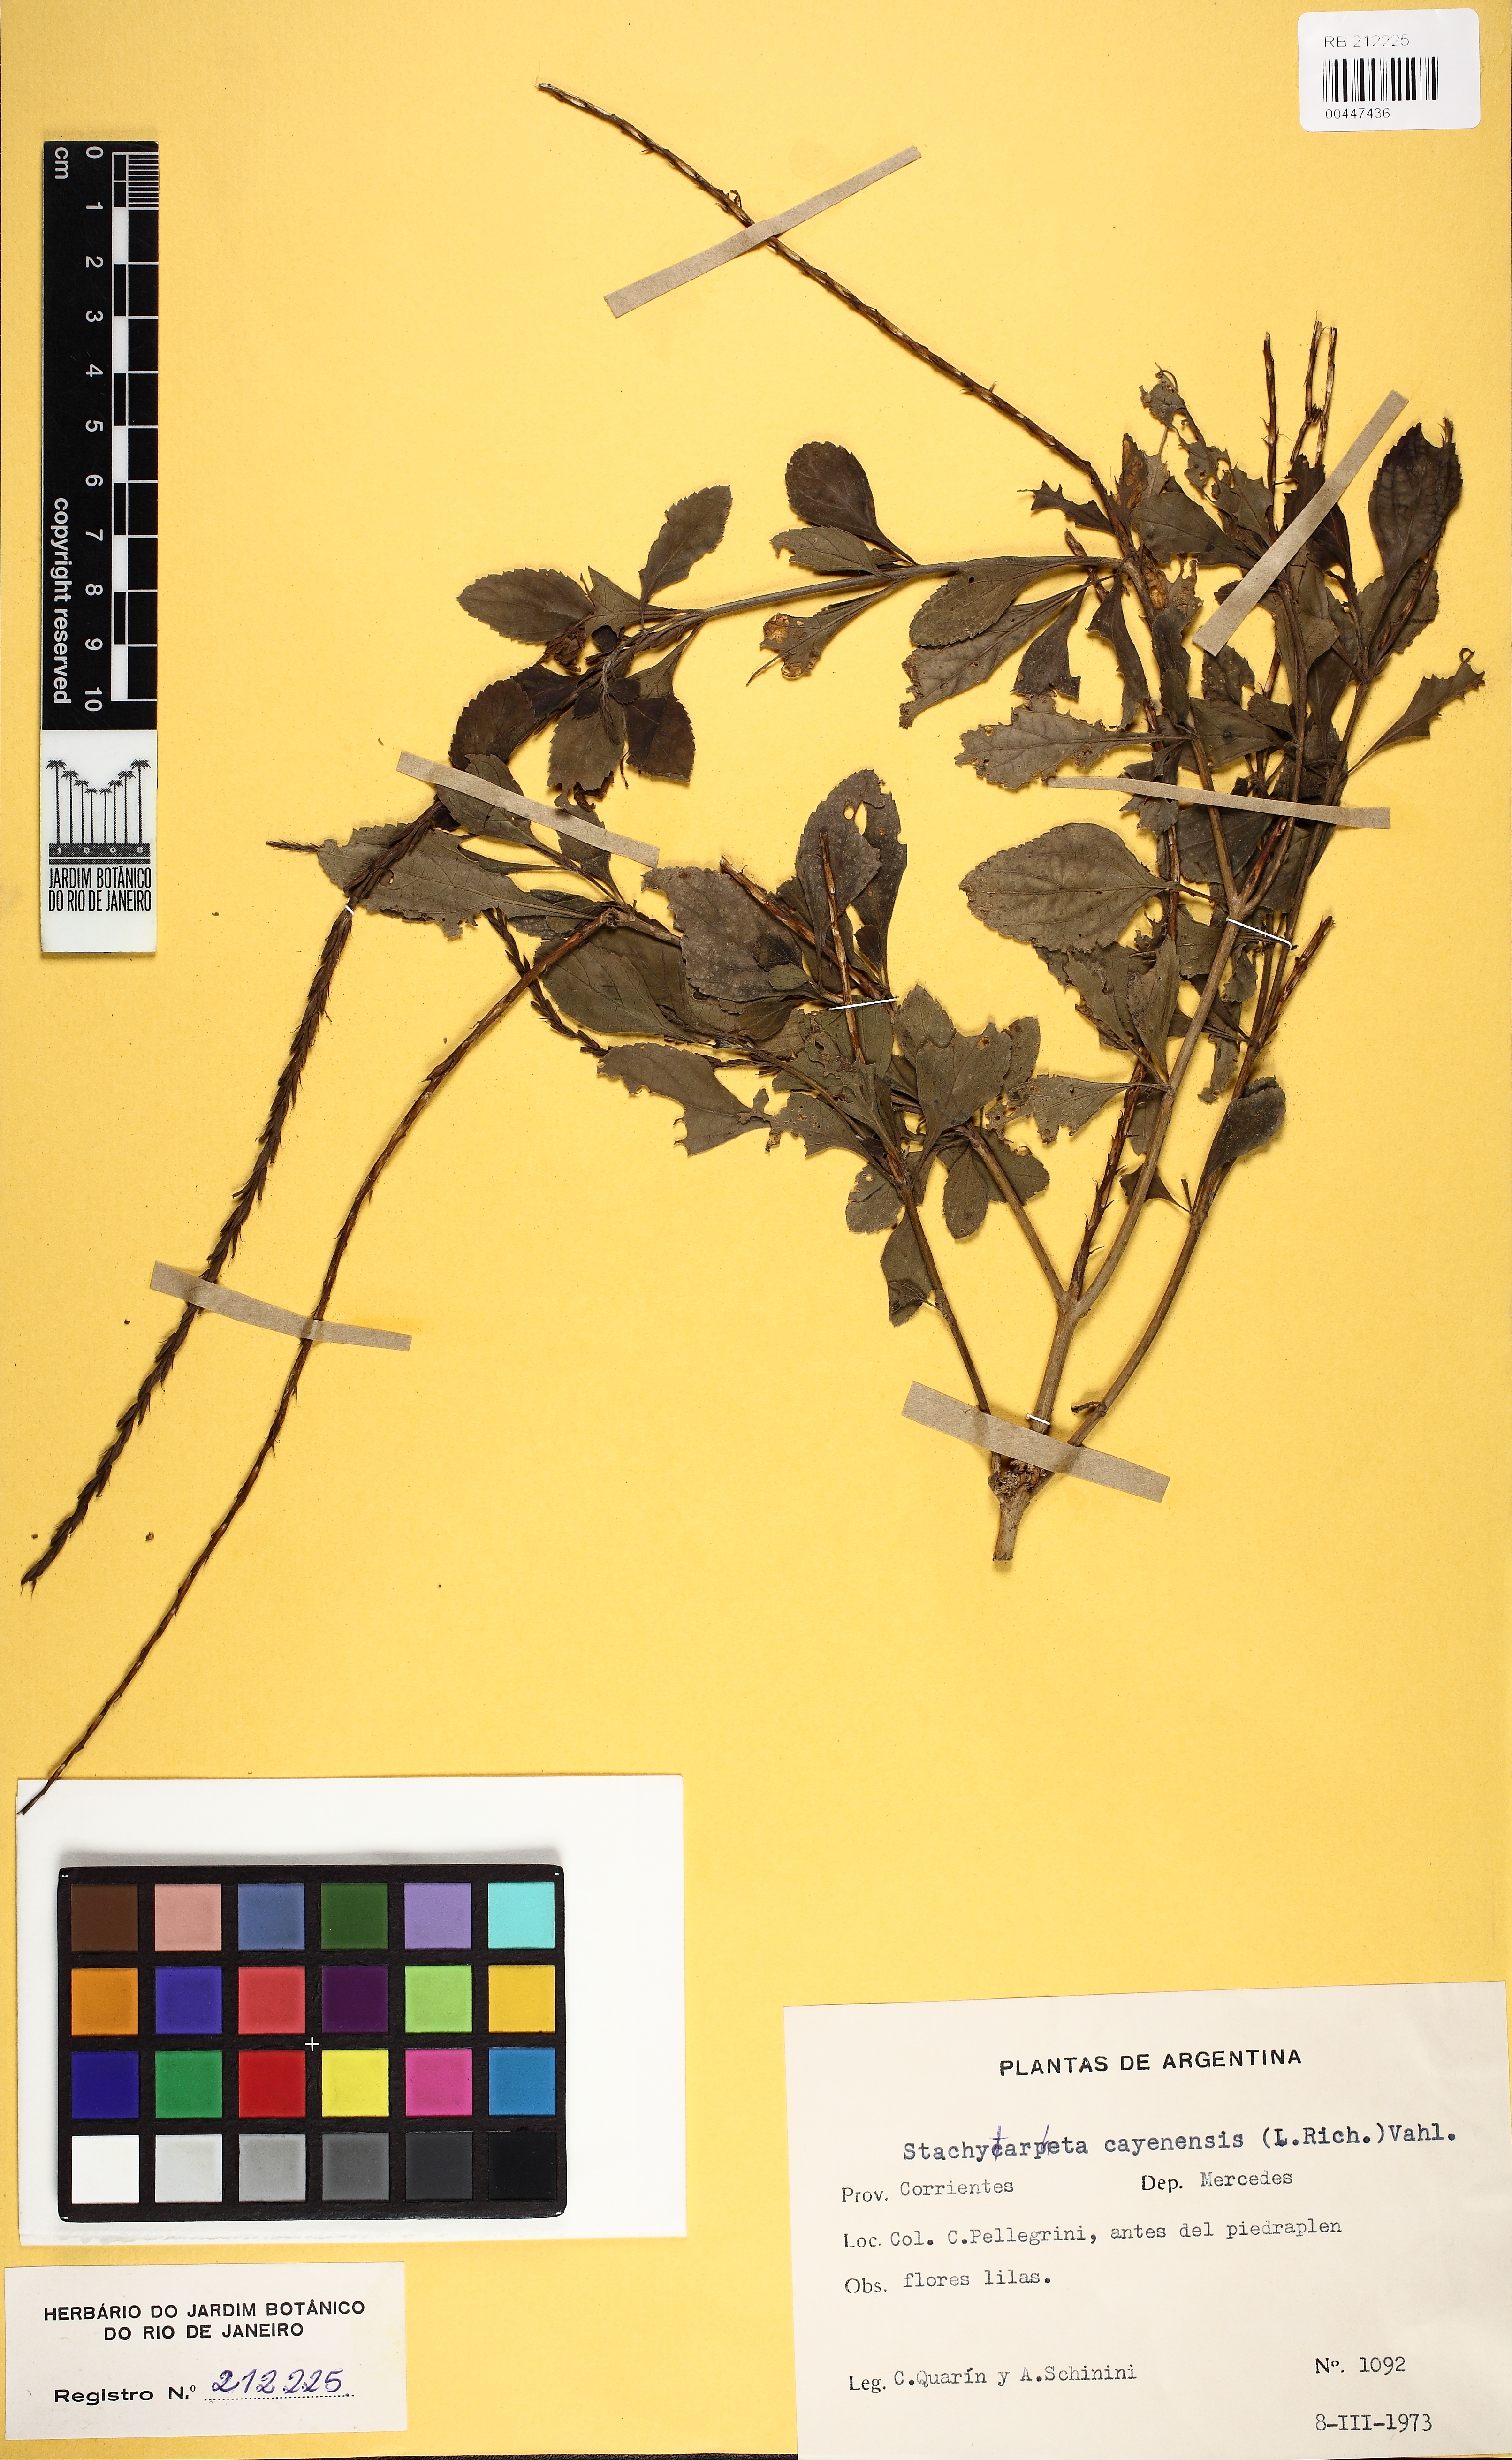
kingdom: Plantae
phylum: Tracheophyta
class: Magnoliopsida
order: Lamiales
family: Verbenaceae
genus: Stachytarpheta
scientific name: Stachytarpheta cayennensis
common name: Cayenne porterweed
